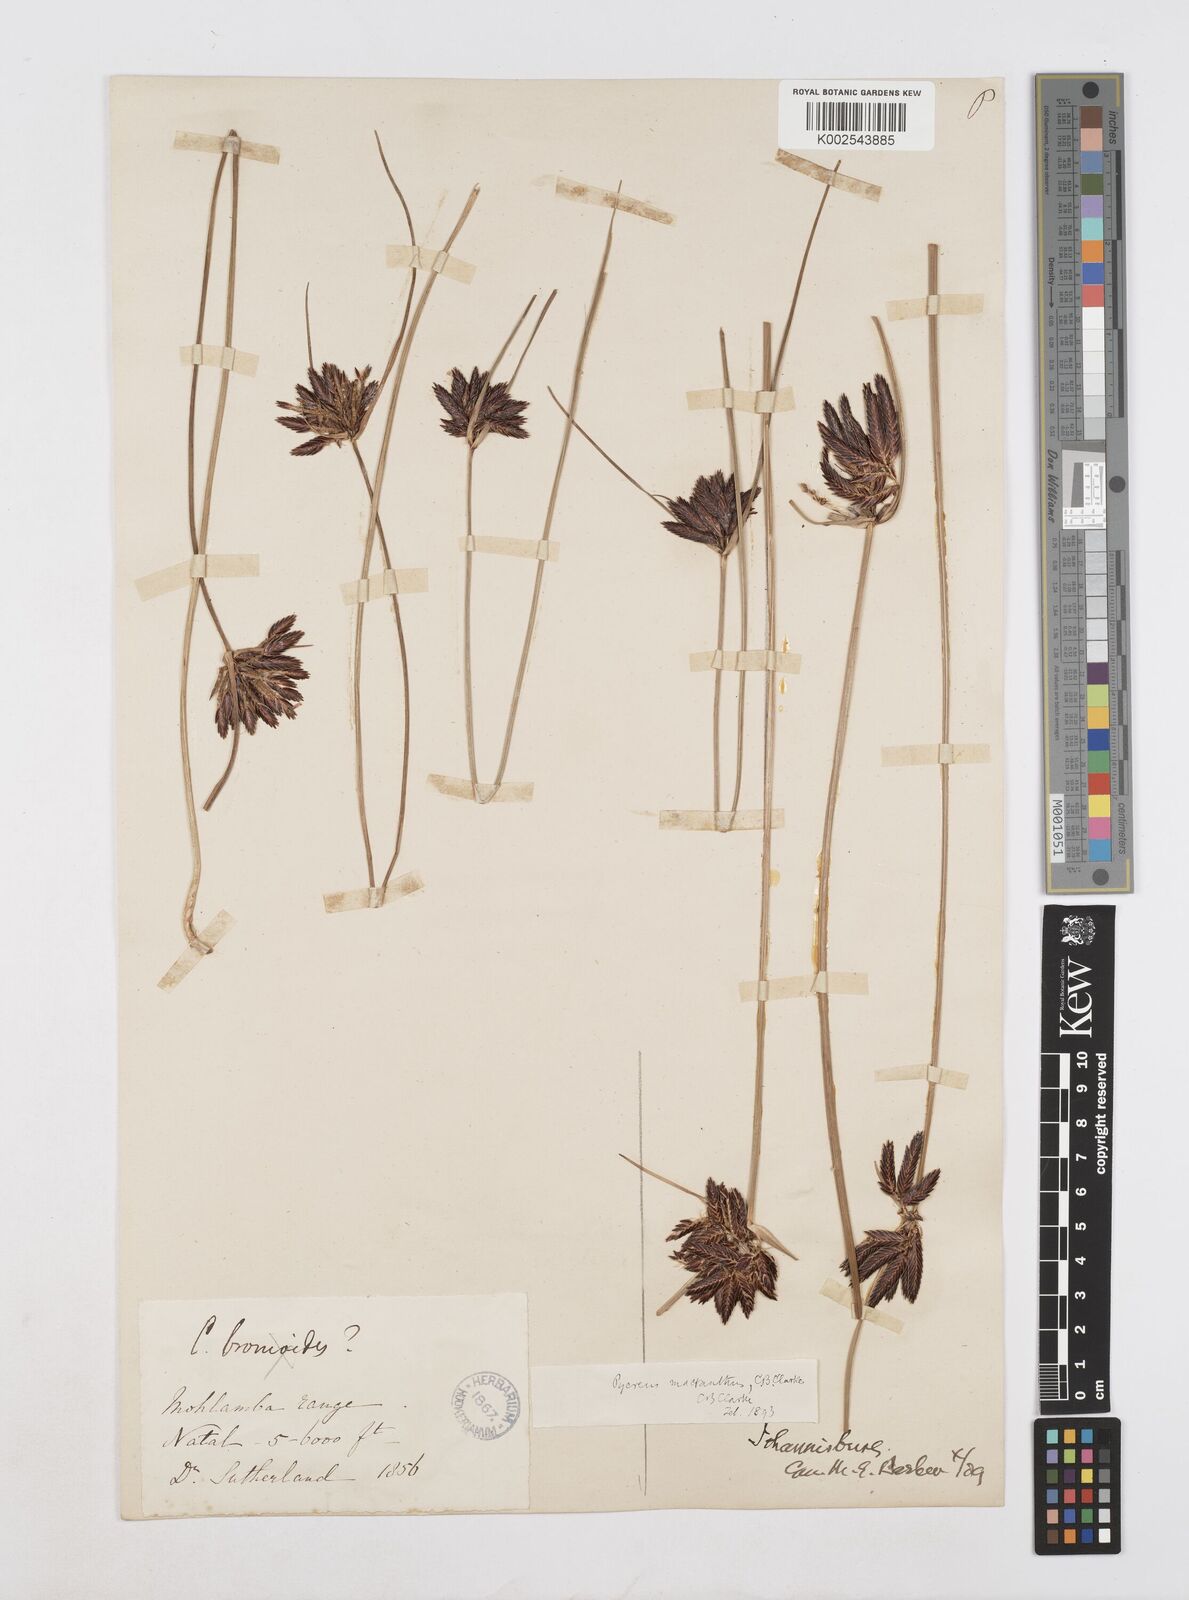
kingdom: Plantae
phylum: Tracheophyta
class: Liliopsida
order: Poales
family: Cyperaceae
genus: Cyperus
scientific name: Cyperus nigricans
